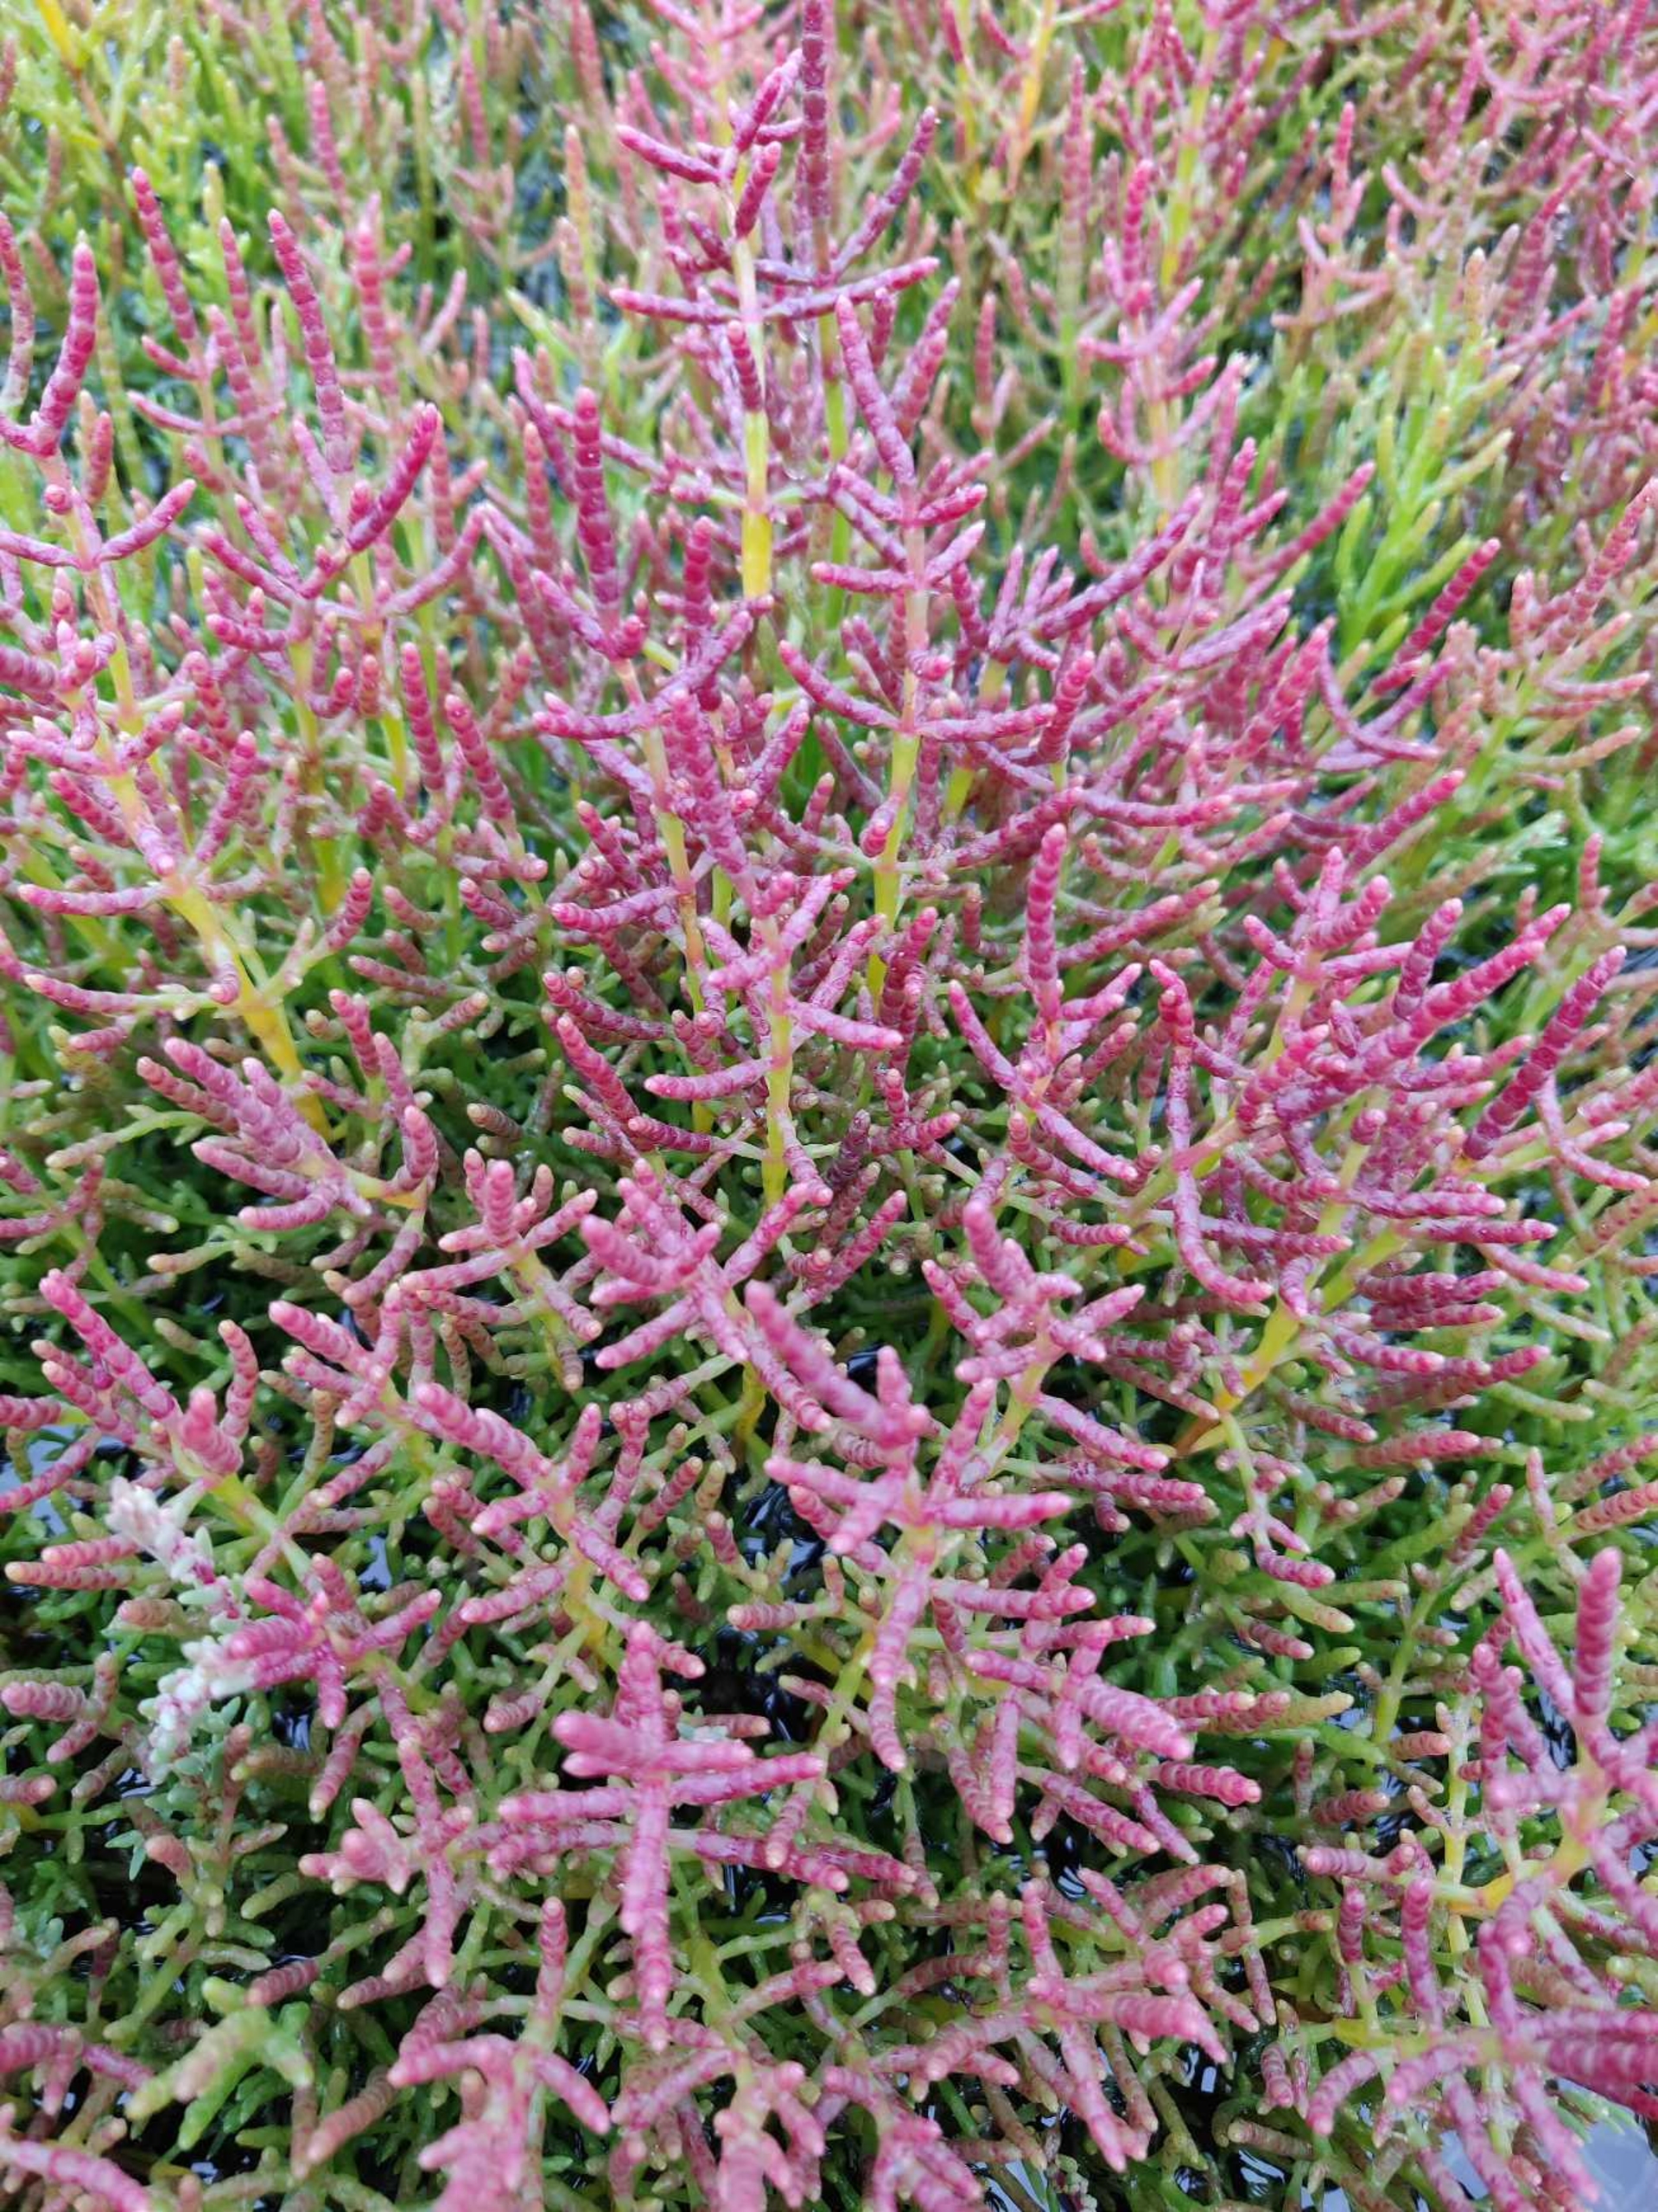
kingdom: Plantae
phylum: Tracheophyta
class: Magnoliopsida
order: Caryophyllales
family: Amaranthaceae
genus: Salicornia
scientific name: Salicornia europaea
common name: Almindelig salturt
